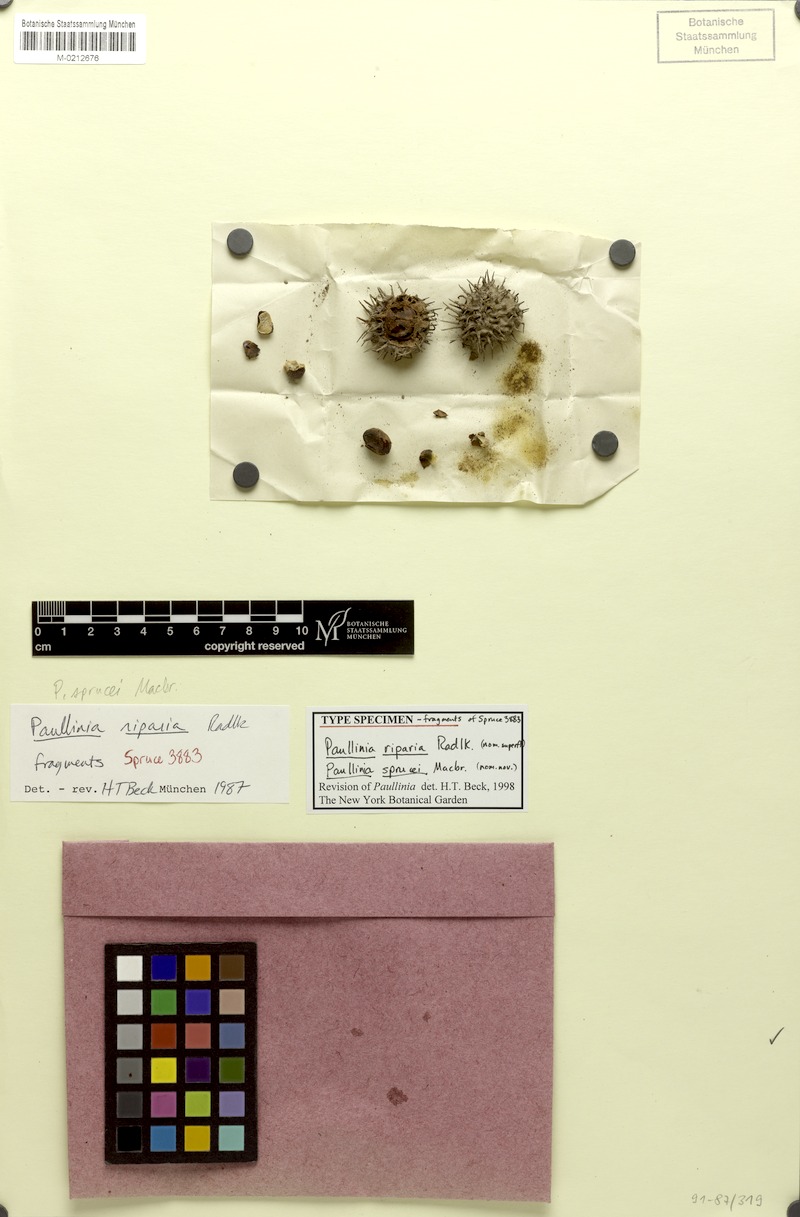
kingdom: Plantae
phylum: Tracheophyta
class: Magnoliopsida
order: Sapindales
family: Sapindaceae
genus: Paullinia
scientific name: Paullinia sprucei
